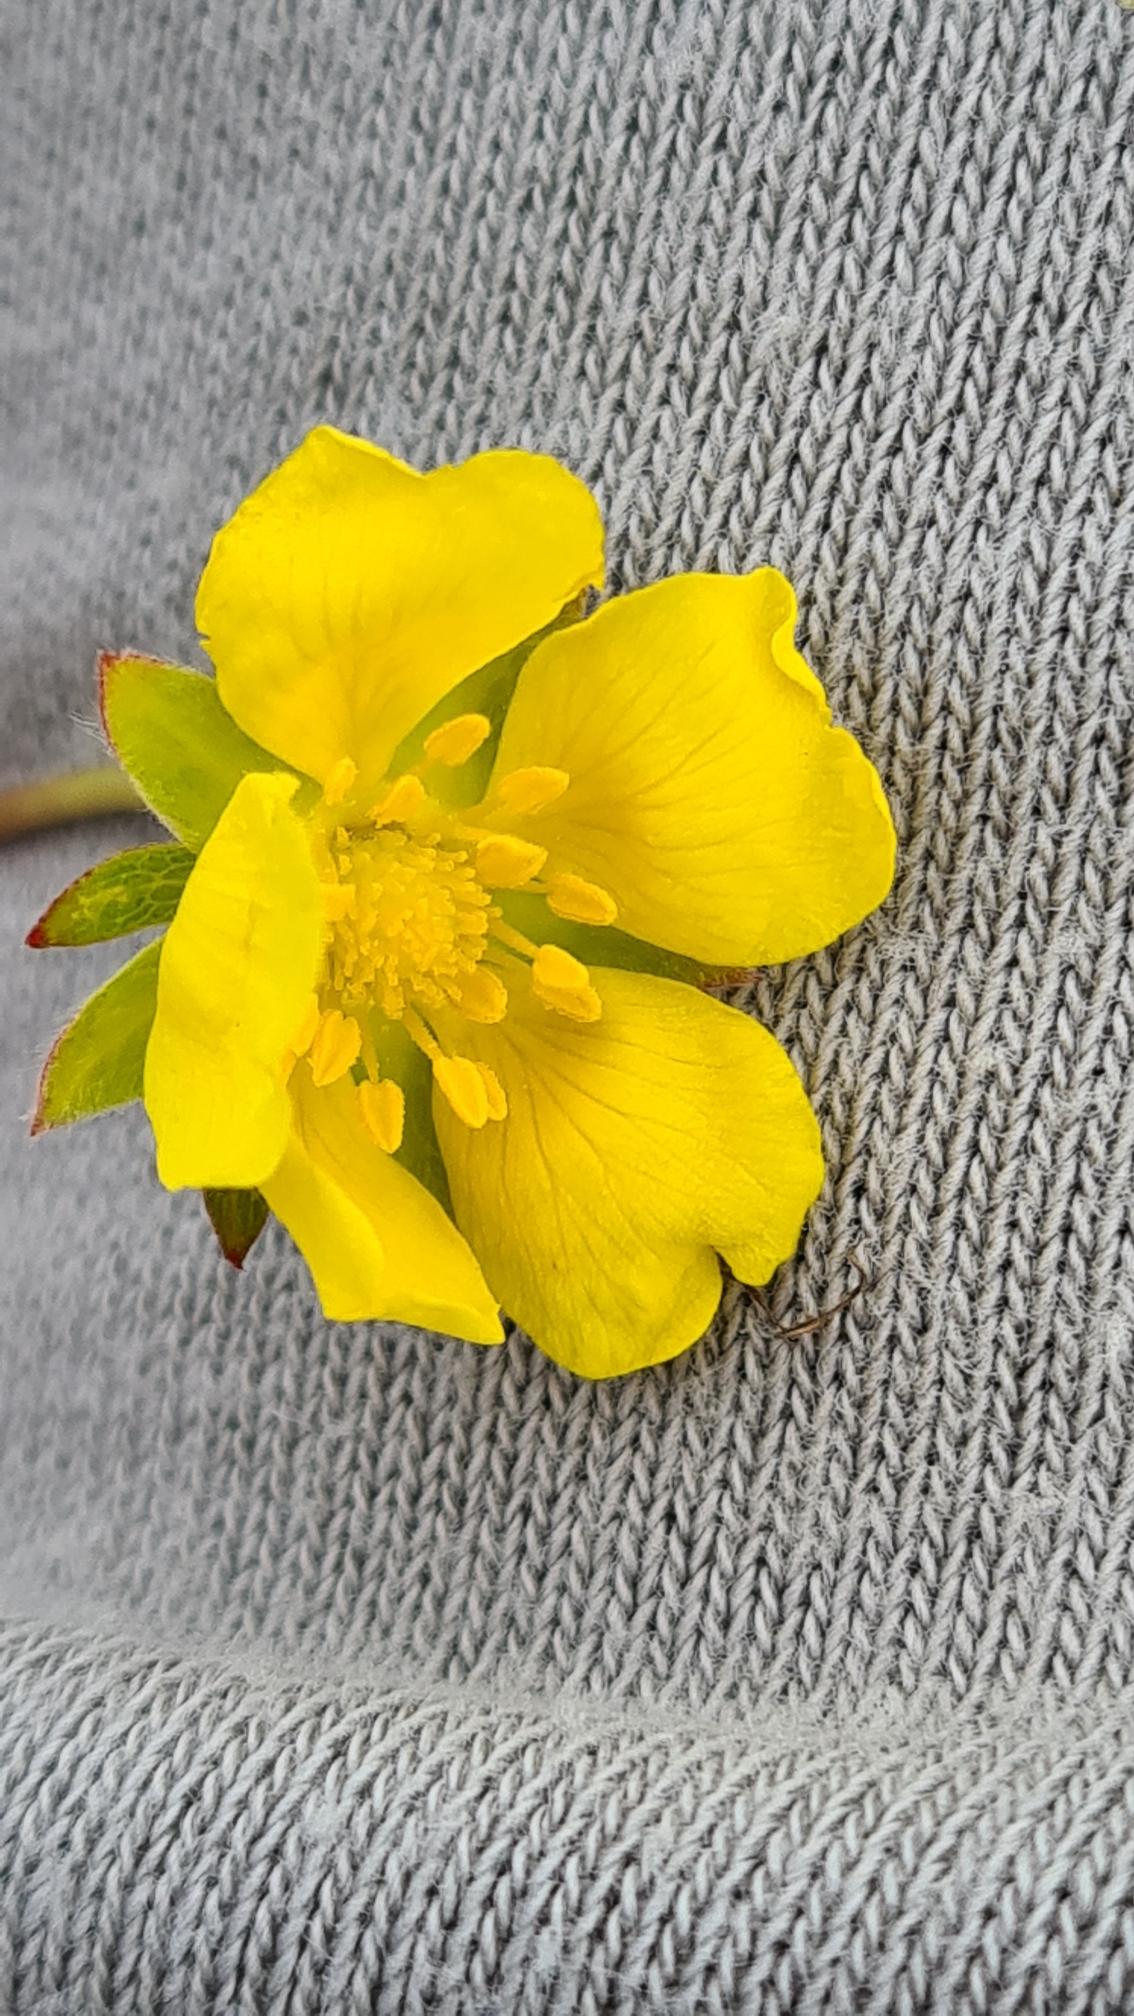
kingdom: Plantae
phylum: Tracheophyta
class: Magnoliopsida
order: Rosales
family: Rosaceae
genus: Potentilla
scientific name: Potentilla reptans
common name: Krybende potentil
